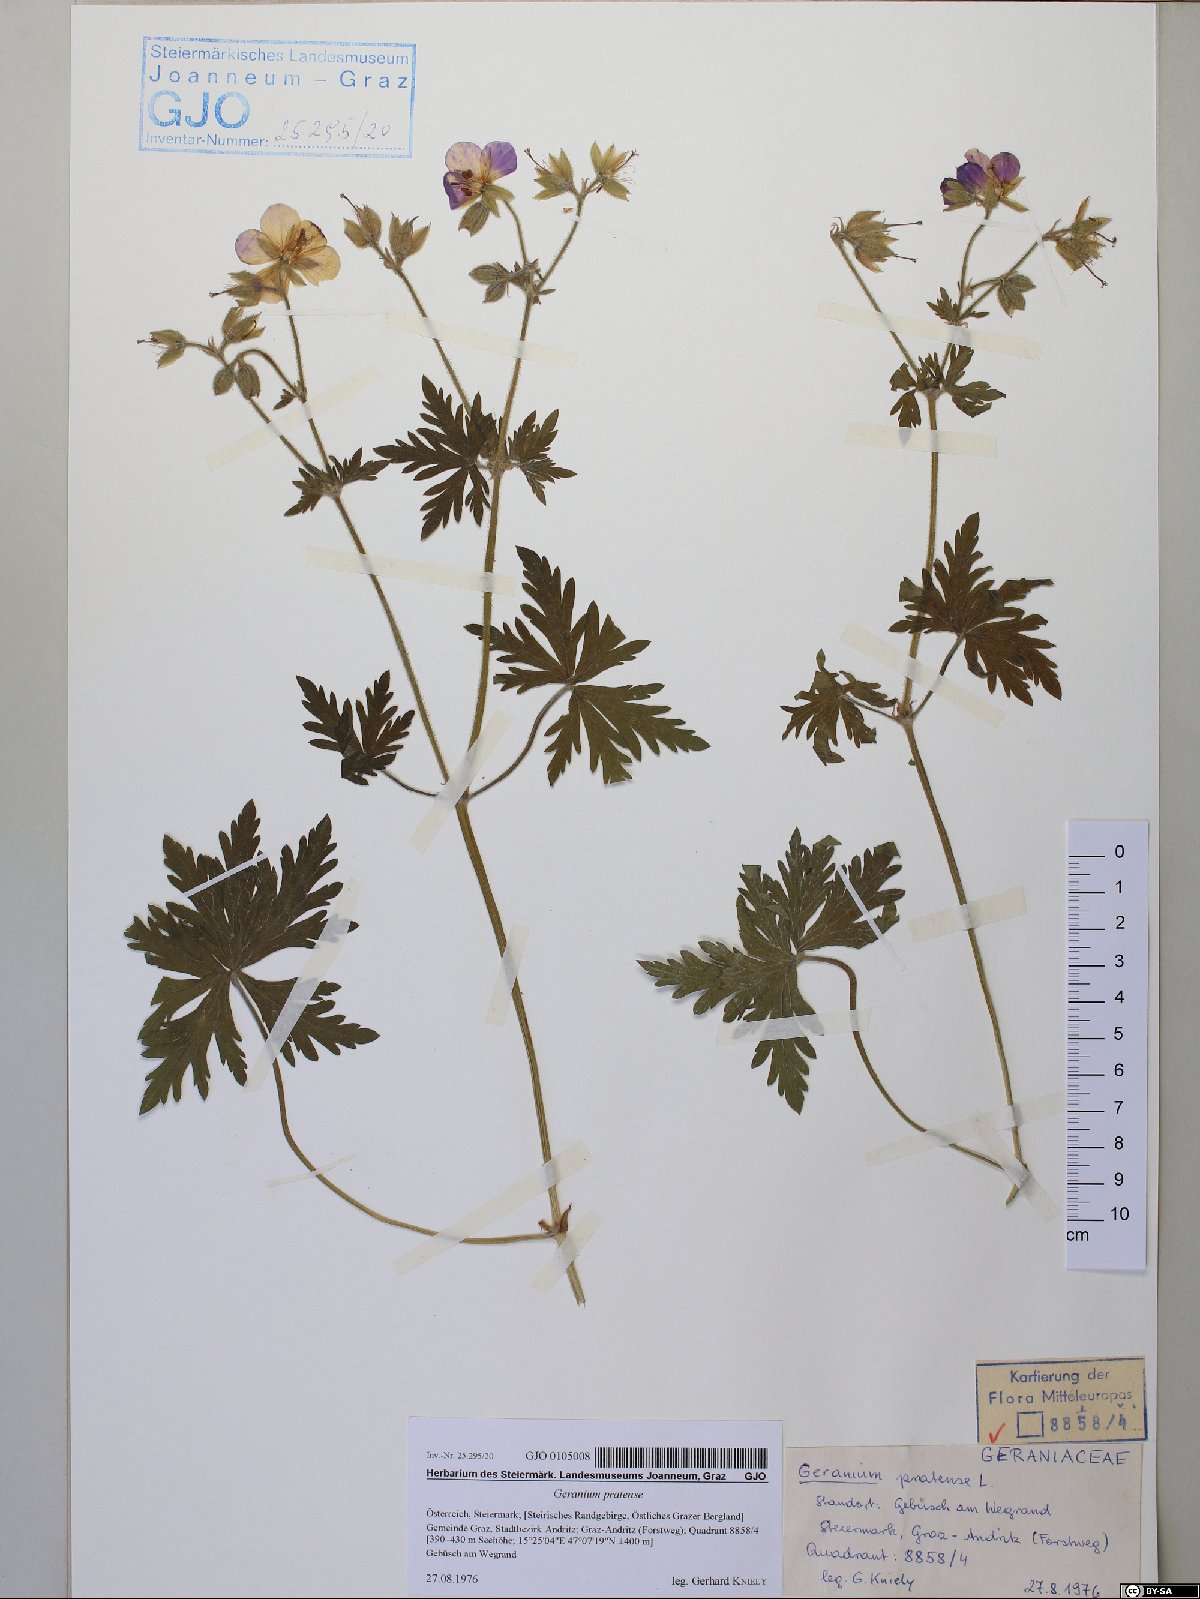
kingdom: Plantae
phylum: Tracheophyta
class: Magnoliopsida
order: Geraniales
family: Geraniaceae
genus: Geranium
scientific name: Geranium pratense
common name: Meadow crane's-bill
